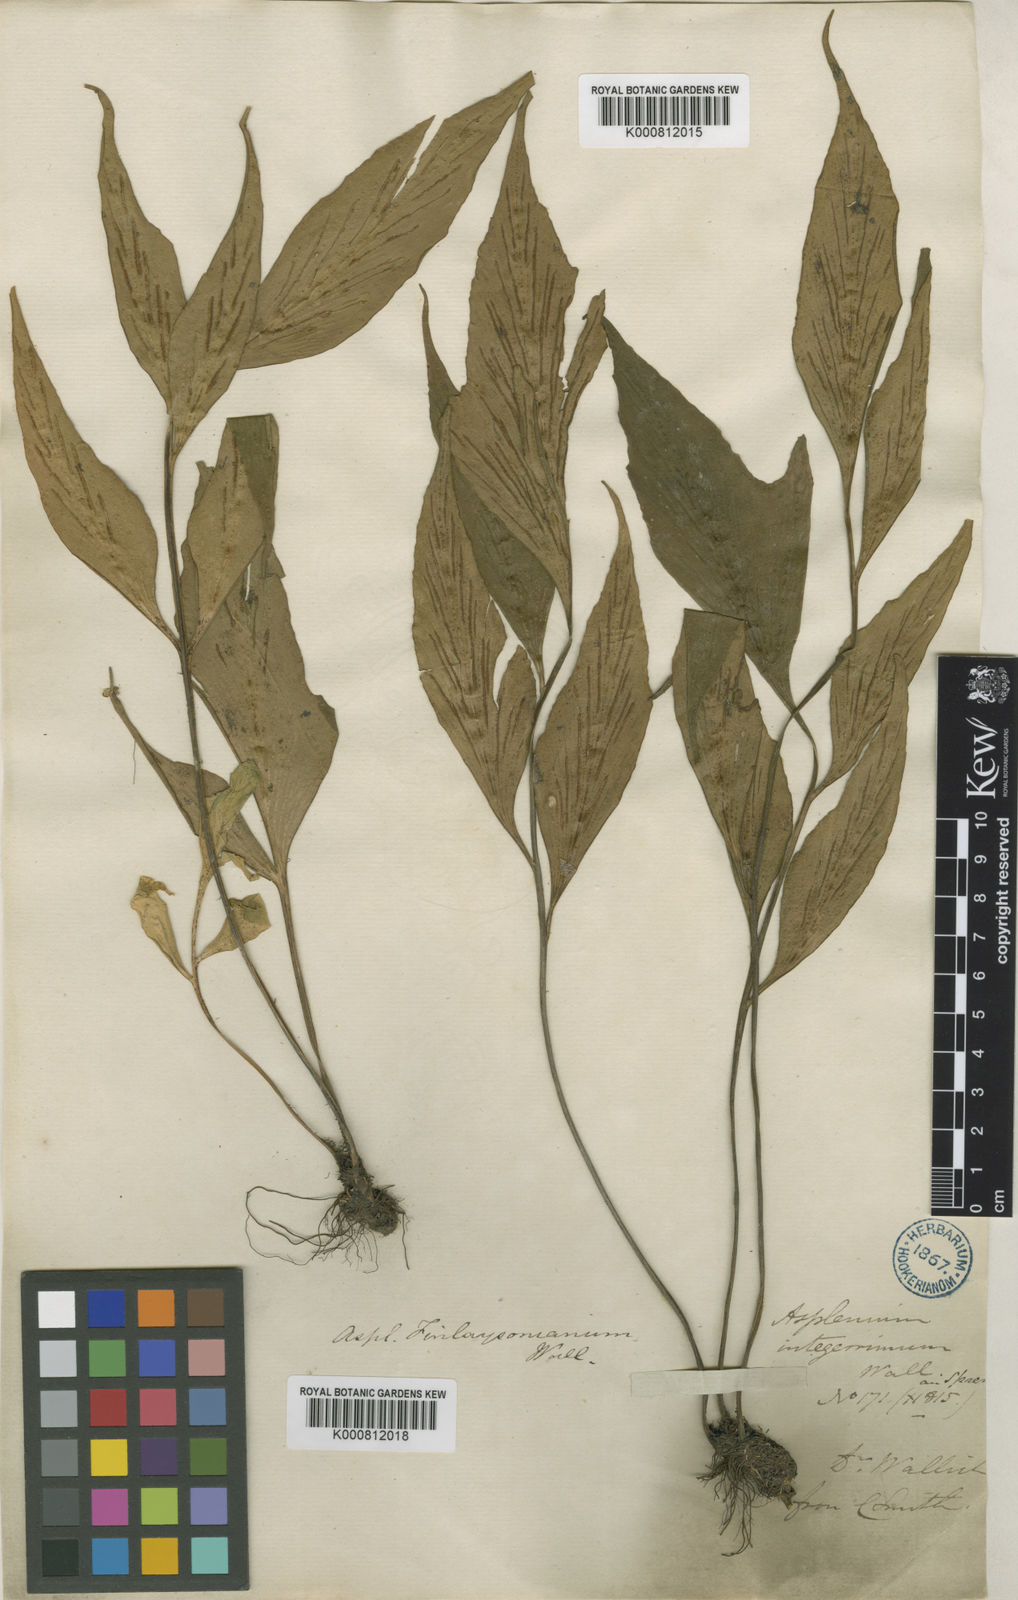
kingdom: Plantae
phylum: Tracheophyta
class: Polypodiopsida
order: Polypodiales
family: Aspleniaceae
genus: Asplenium
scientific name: Asplenium
